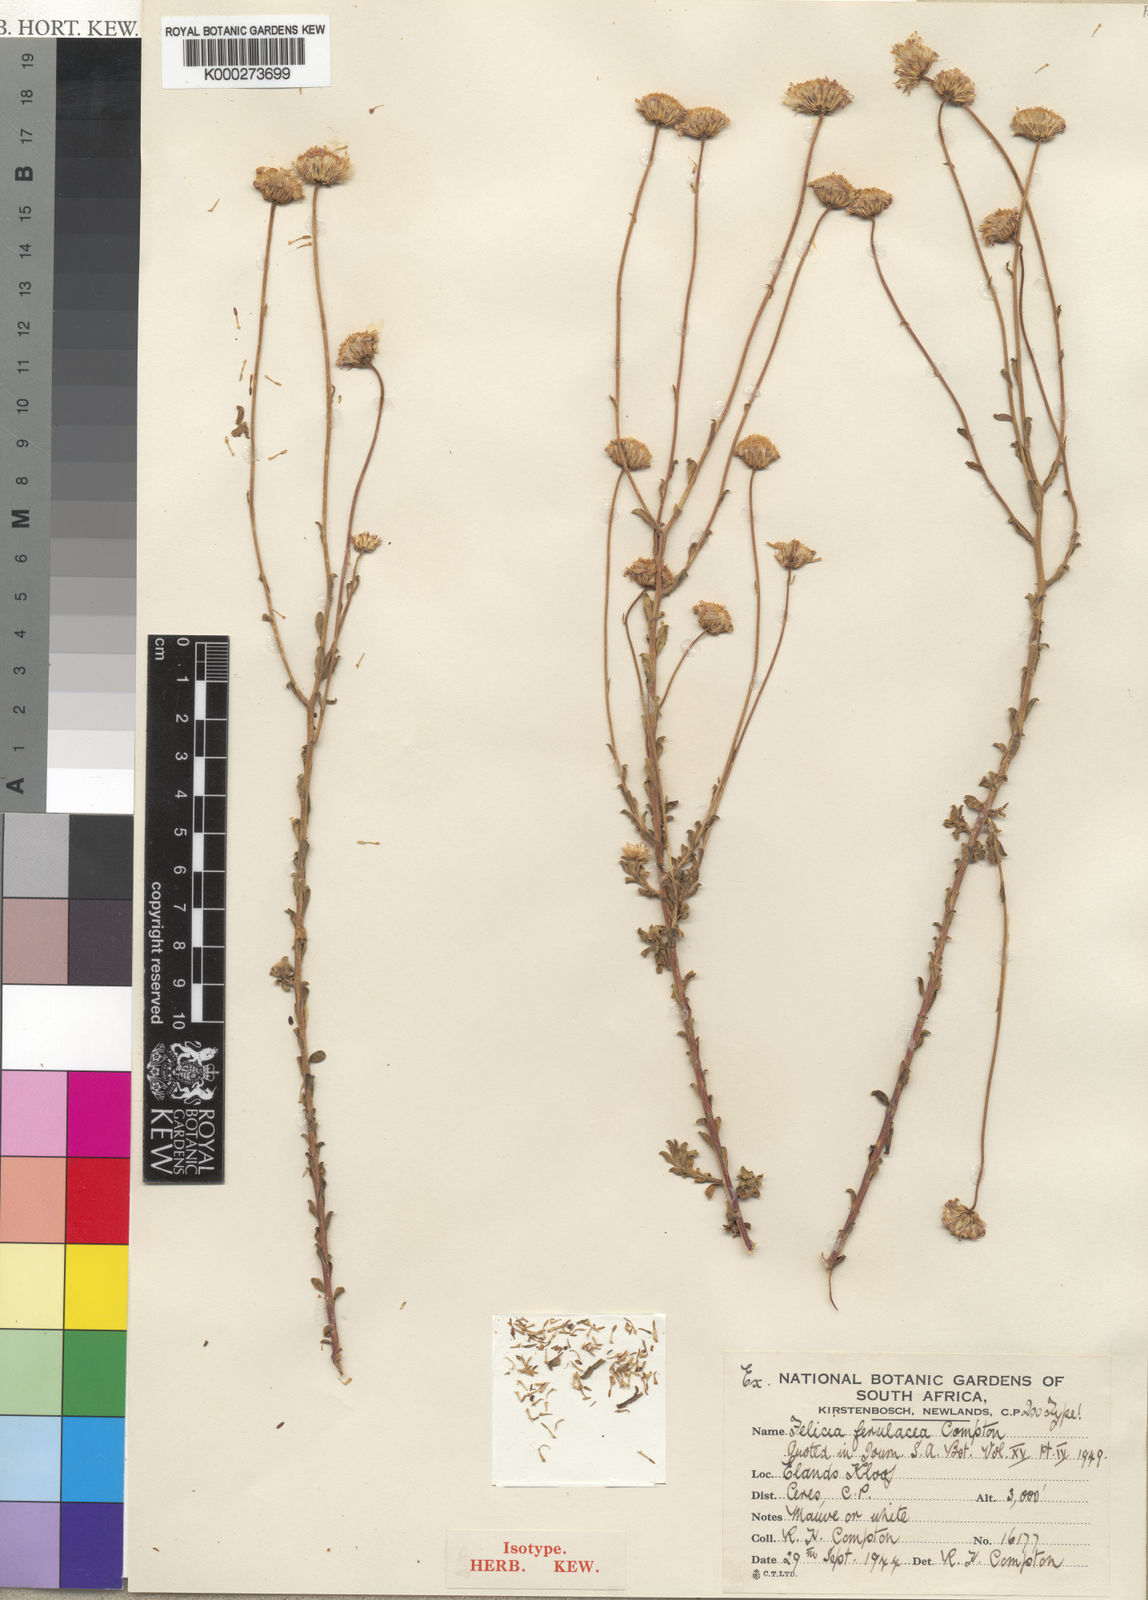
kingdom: Plantae
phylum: Tracheophyta
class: Magnoliopsida
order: Asterales
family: Asteraceae
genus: Felicia
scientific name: Felicia ferulacea
